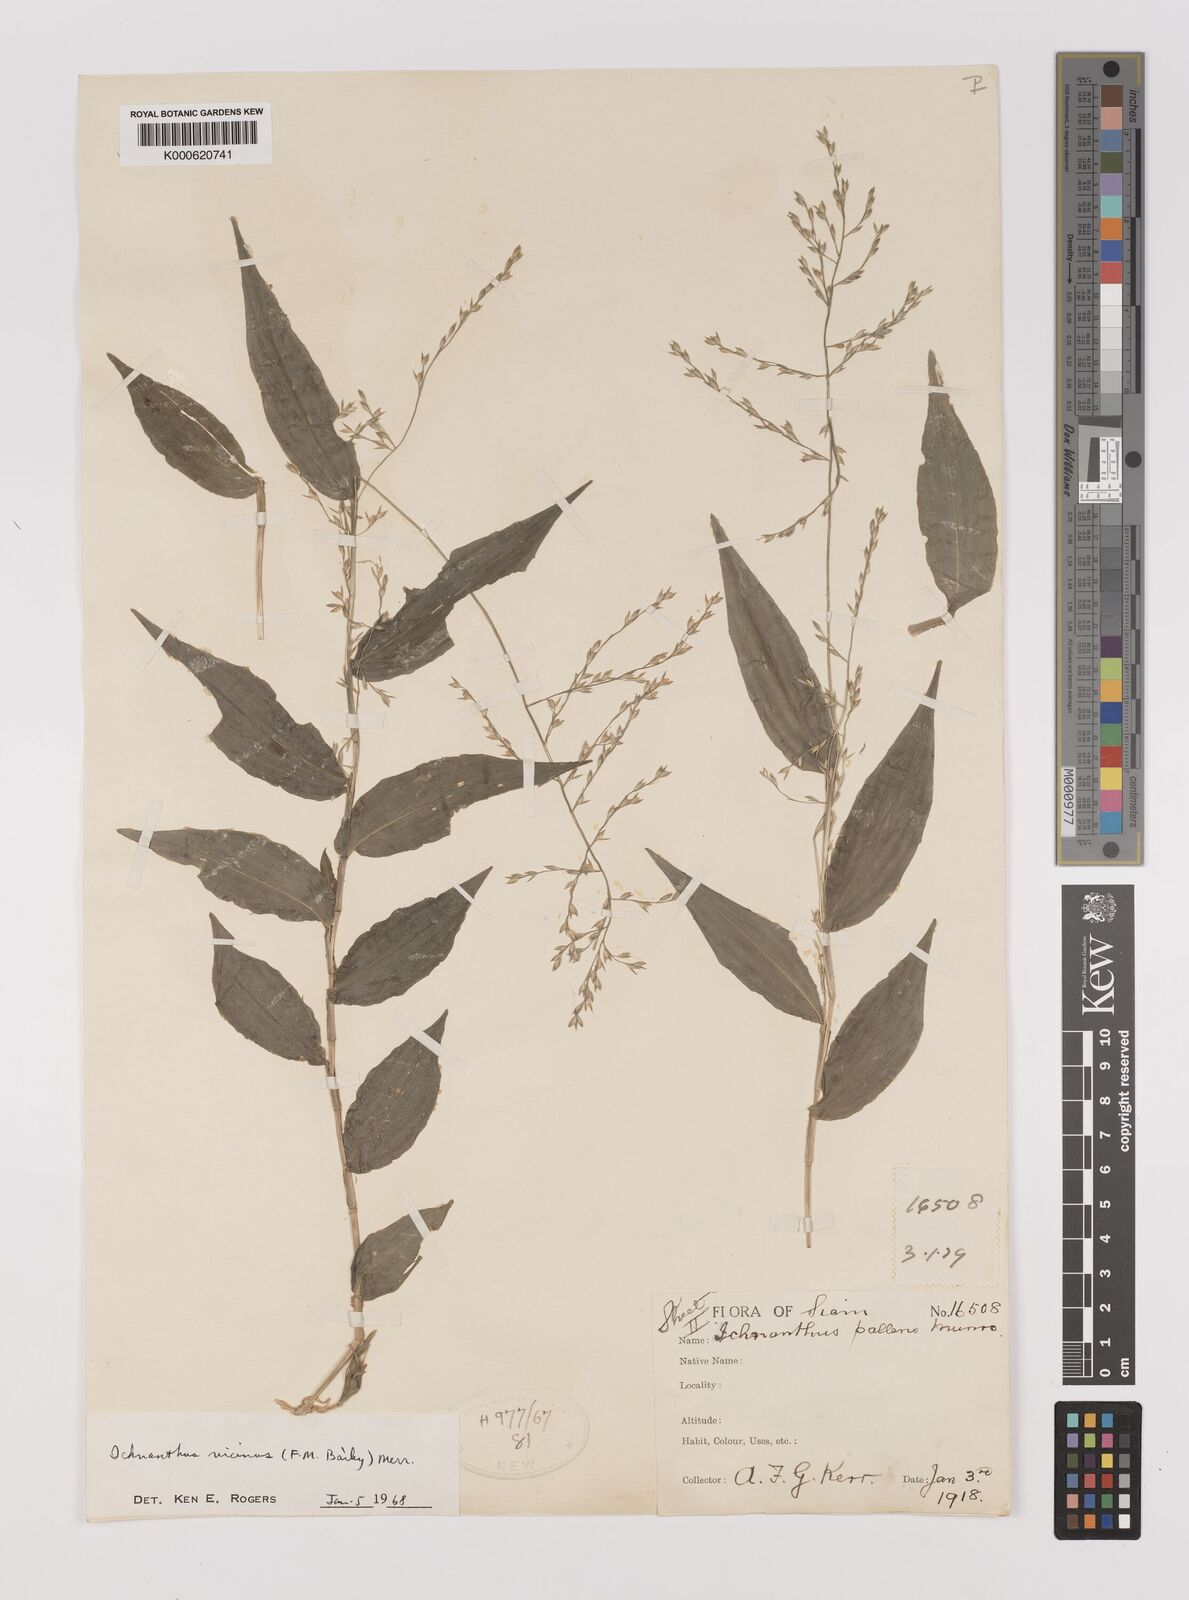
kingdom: Plantae
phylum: Tracheophyta
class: Liliopsida
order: Poales
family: Poaceae
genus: Ichnanthus
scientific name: Ichnanthus
